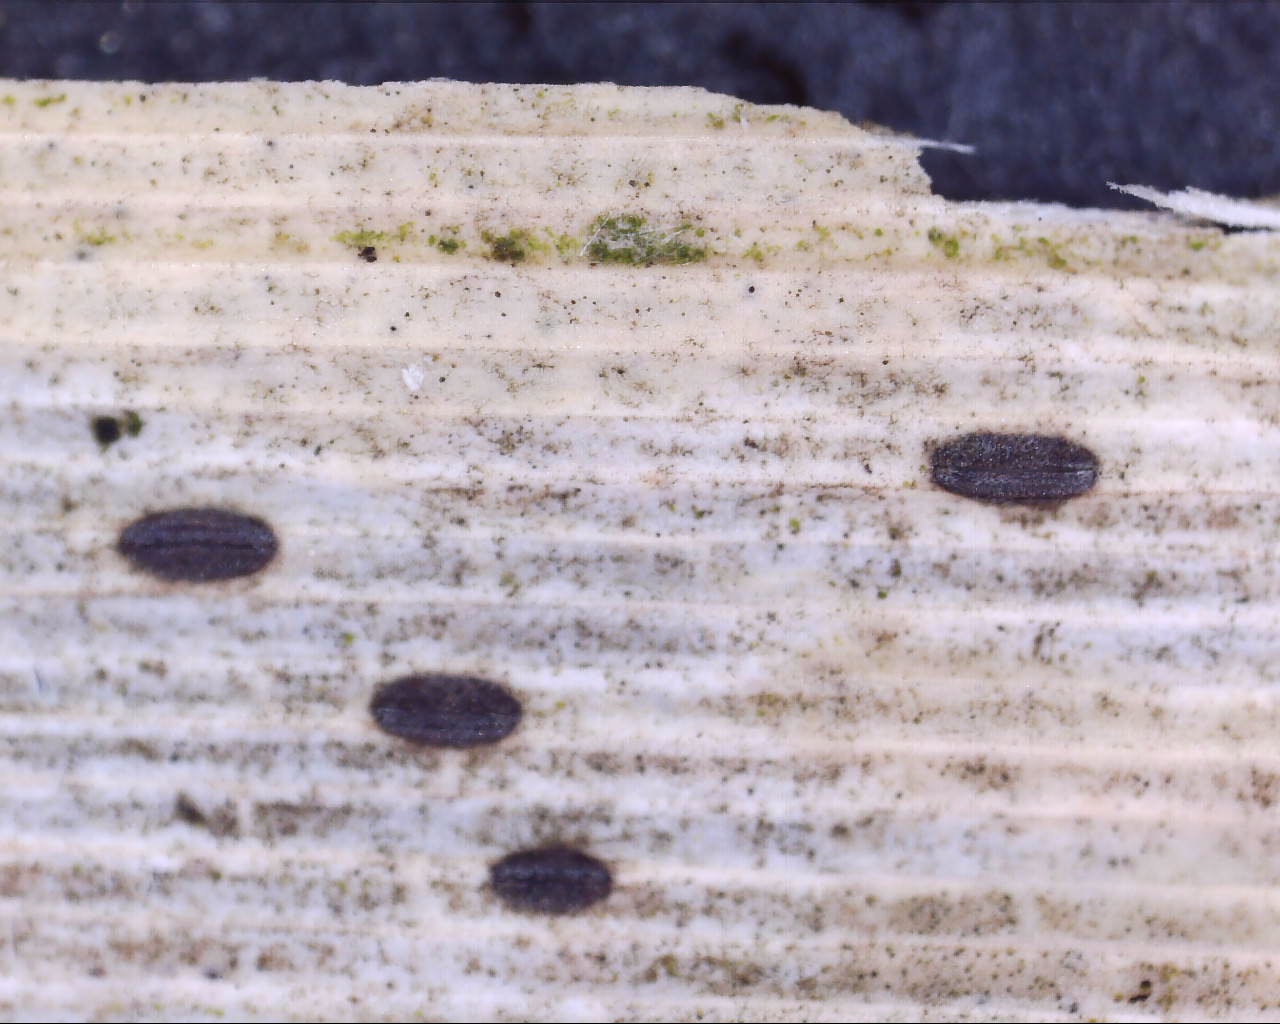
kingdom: Fungi
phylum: Ascomycota
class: Leotiomycetes
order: Rhytismatales
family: Rhytismataceae
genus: Lophodermium
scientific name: Lophodermium
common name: fureplet
